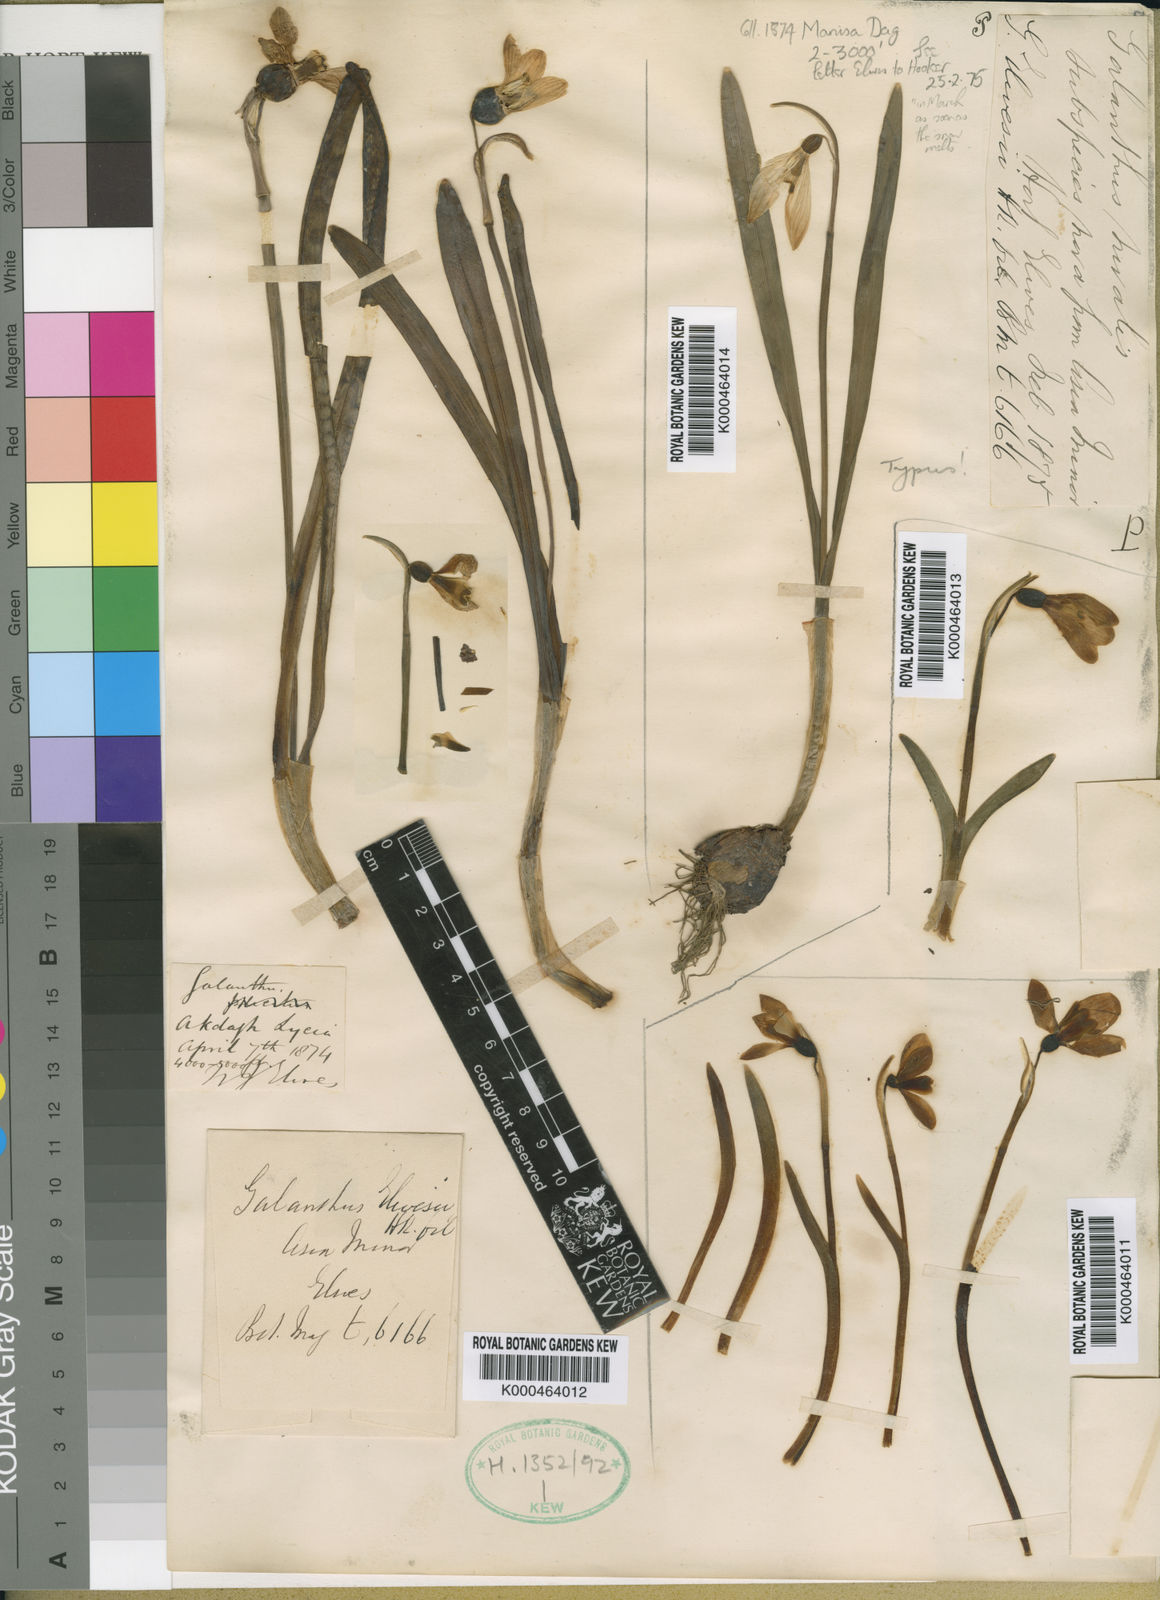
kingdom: Plantae
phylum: Tracheophyta
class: Liliopsida
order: Asparagales
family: Amaryllidaceae
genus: Galanthus
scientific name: Galanthus elwesii
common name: Greater snowdrop
